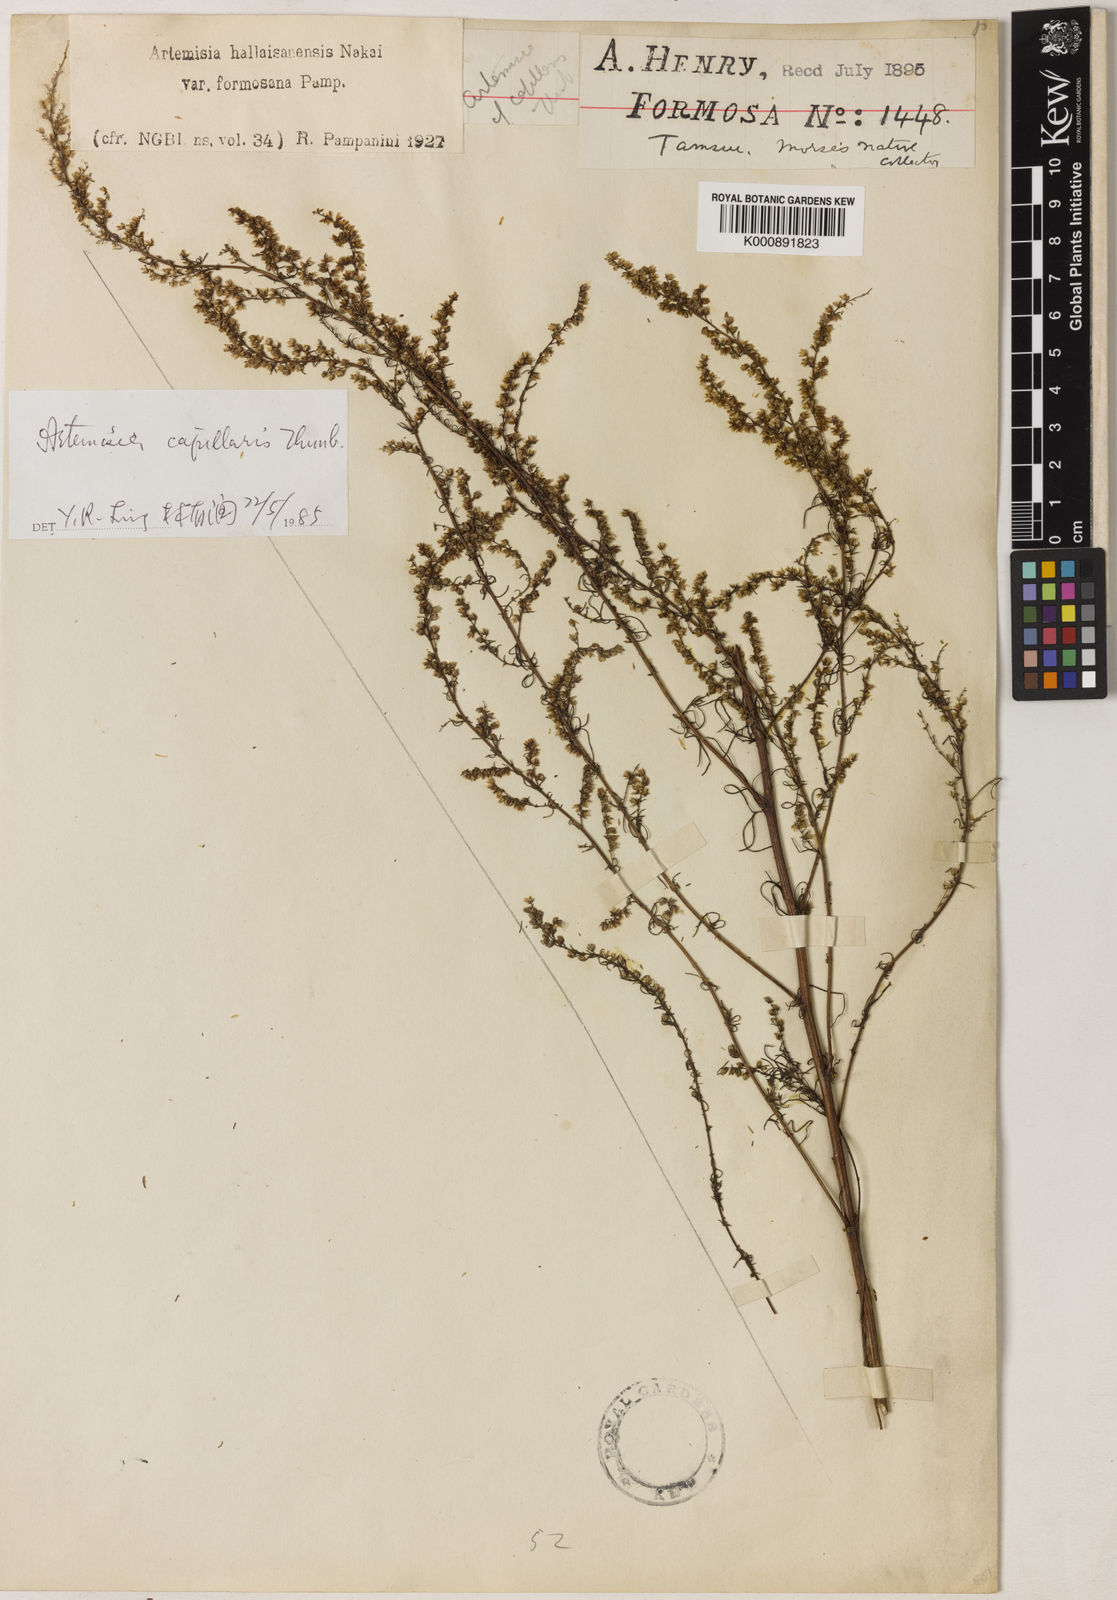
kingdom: Plantae
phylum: Tracheophyta
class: Magnoliopsida
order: Asterales
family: Asteraceae
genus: Artemisia
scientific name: Artemisia capillaris
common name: Yin-chen wormwood
